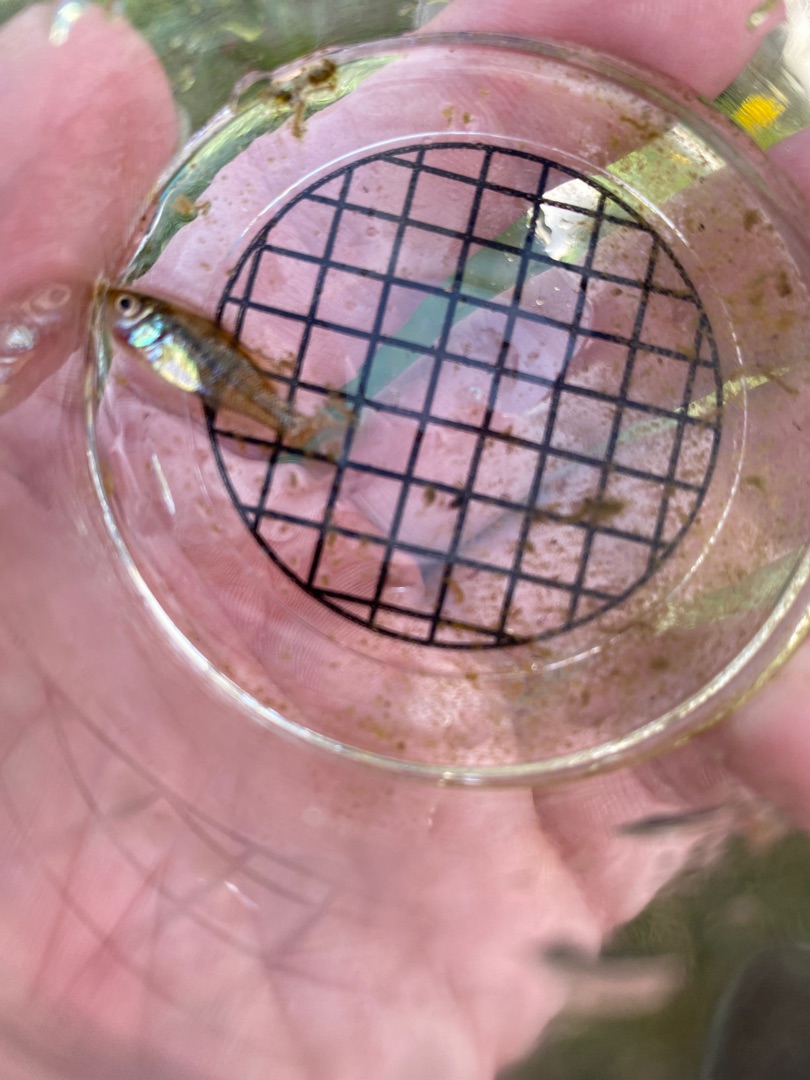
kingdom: Animalia
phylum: Chordata
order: Perciformes
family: Centrarchidae
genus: Lepomis
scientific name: Lepomis gibbosus
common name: Almindelig solaborre
